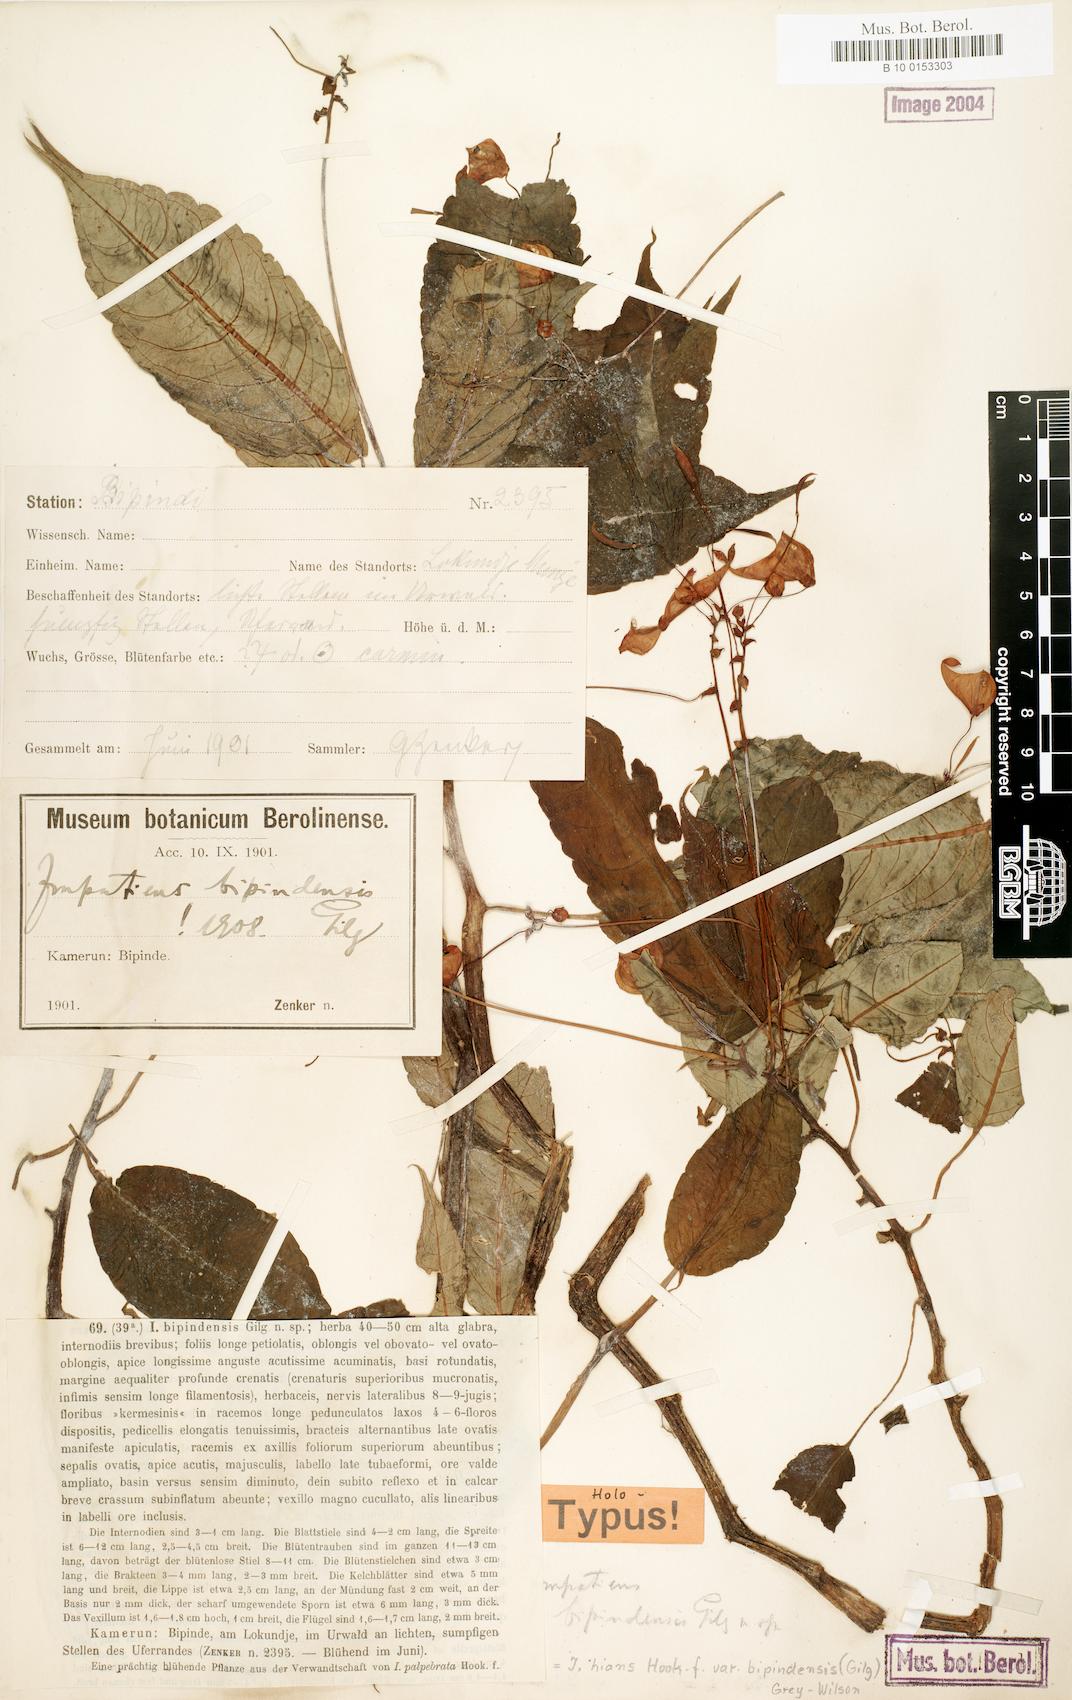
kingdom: Plantae
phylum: Tracheophyta
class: Magnoliopsida
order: Ericales
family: Balsaminaceae
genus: Impatiens
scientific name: Impatiens hians
